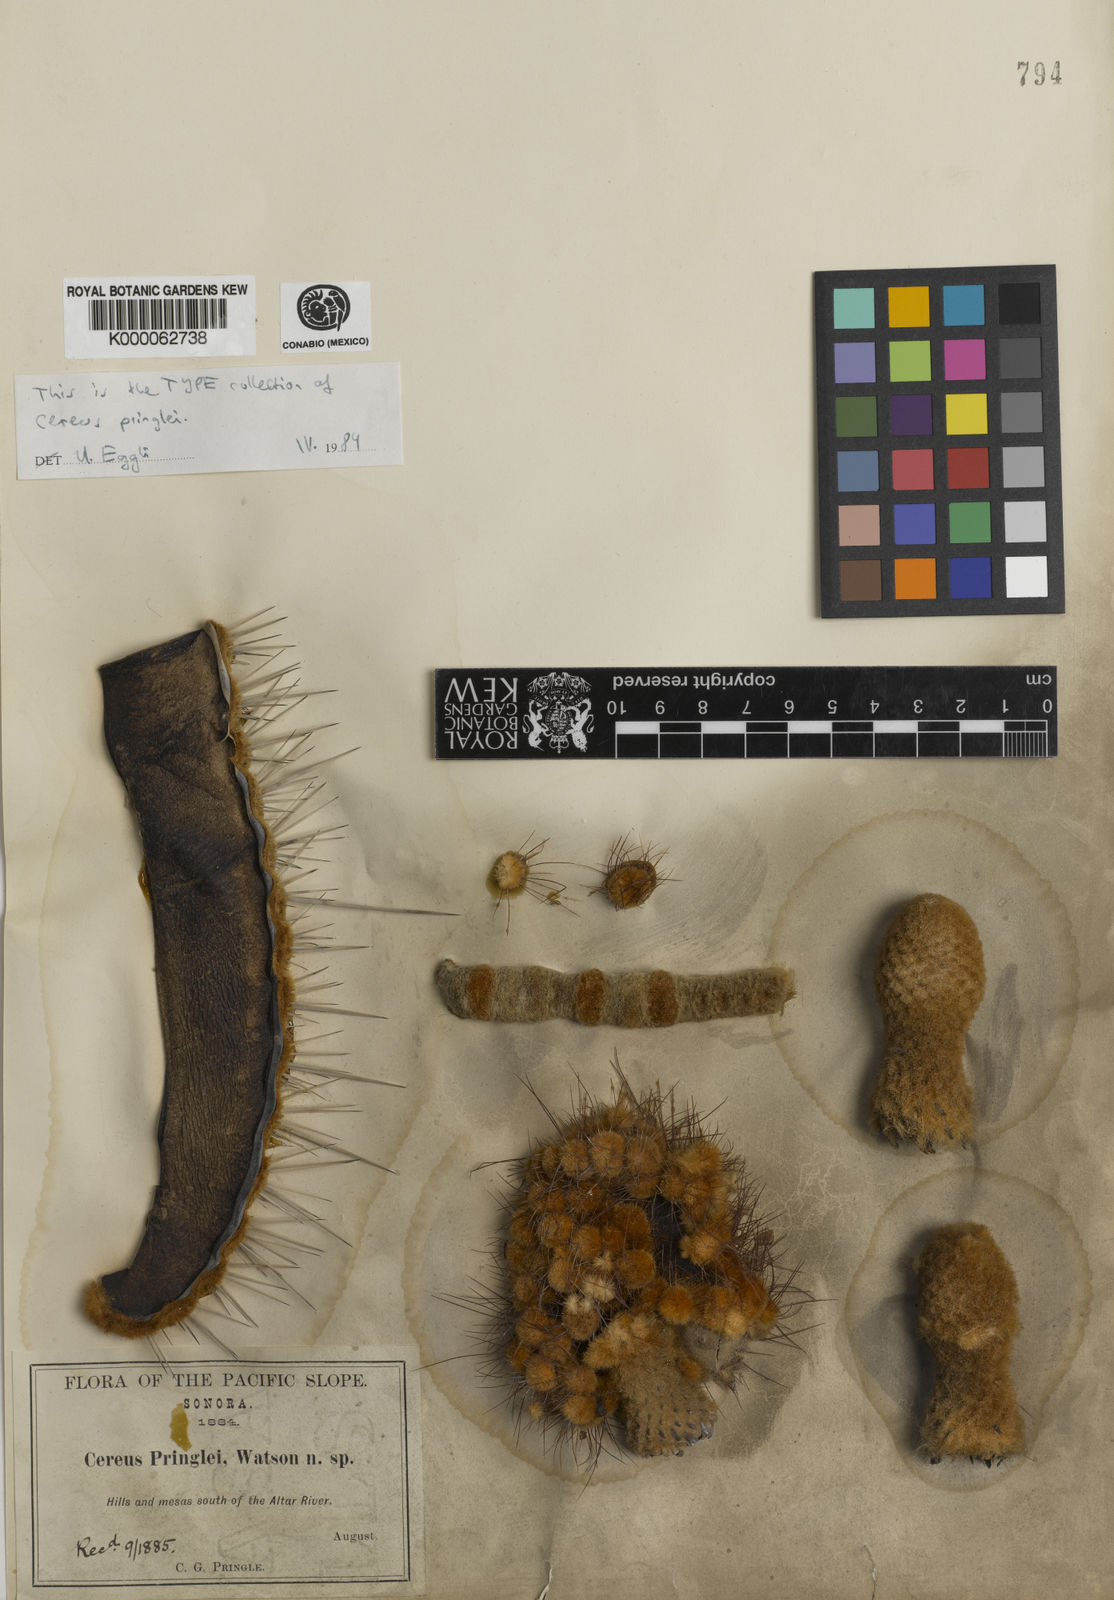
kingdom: Plantae
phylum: Tracheophyta
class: Magnoliopsida
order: Caryophyllales
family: Cactaceae
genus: Pachycereus
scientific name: Pachycereus pringlei
